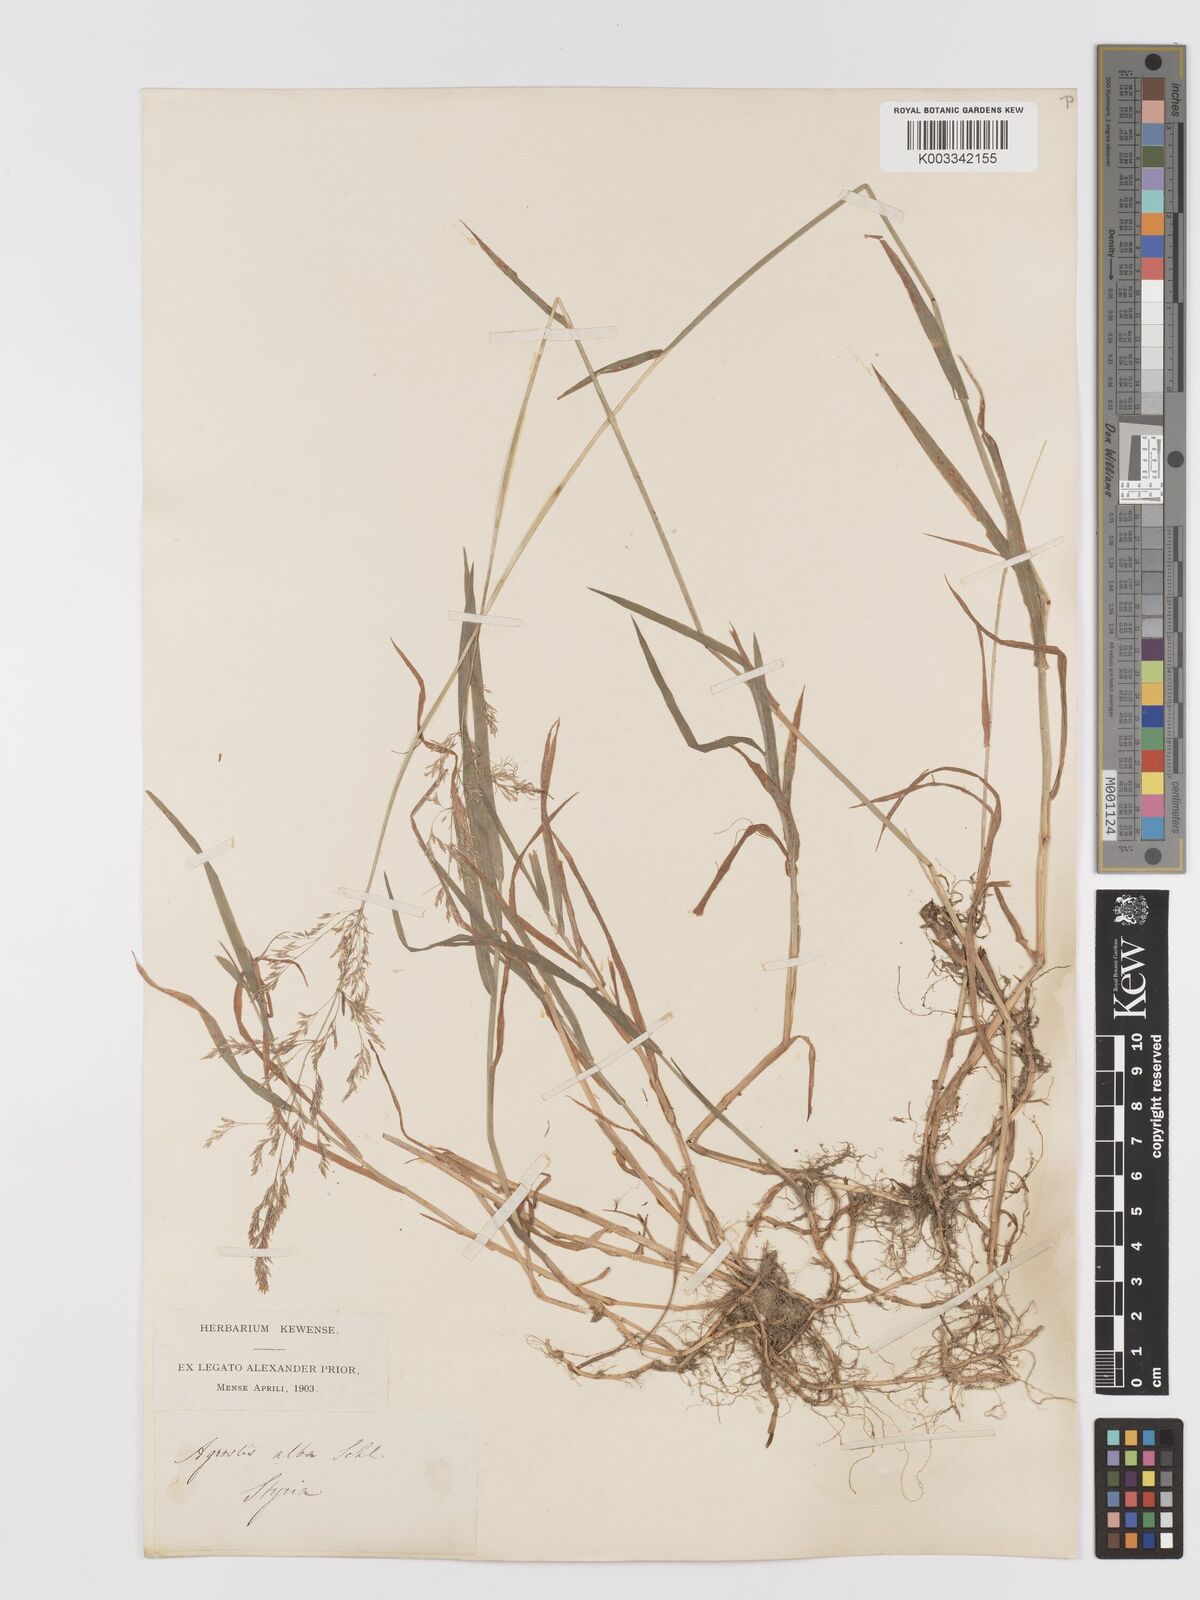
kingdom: Plantae
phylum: Tracheophyta
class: Liliopsida
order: Poales
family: Poaceae
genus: Agrostis
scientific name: Agrostis stolonifera
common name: Creeping bentgrass
